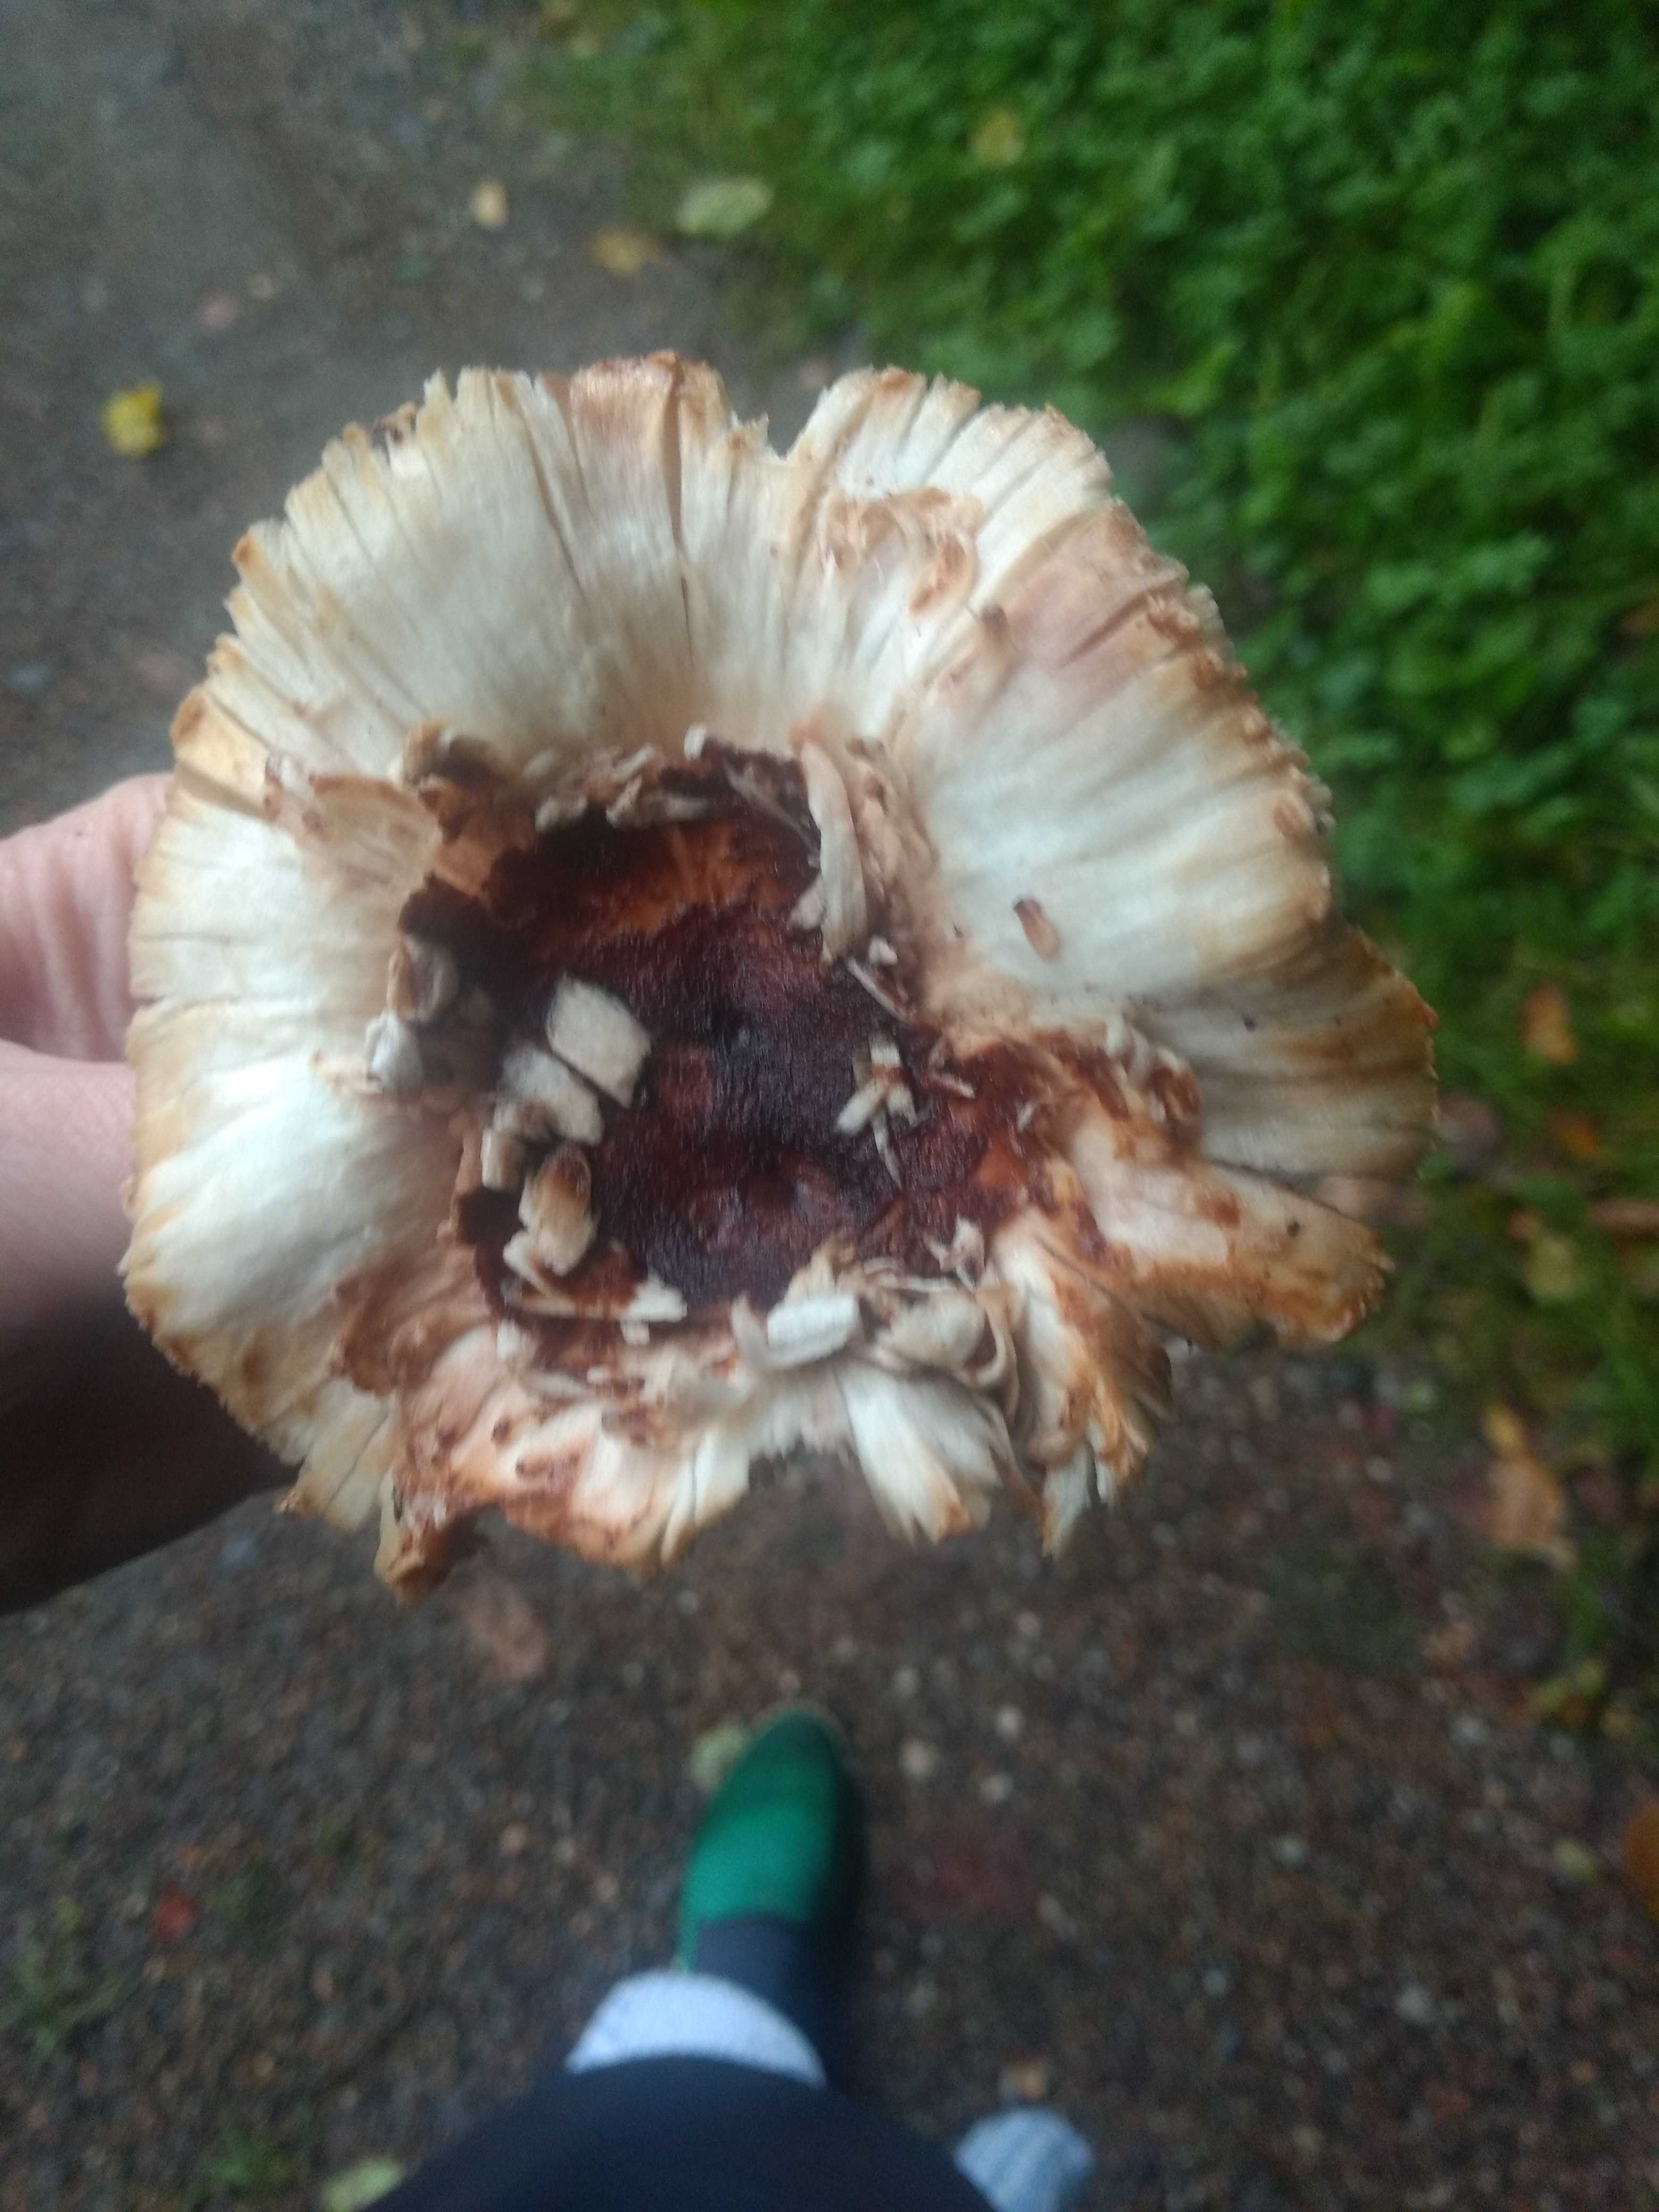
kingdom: Fungi
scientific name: Fungi
